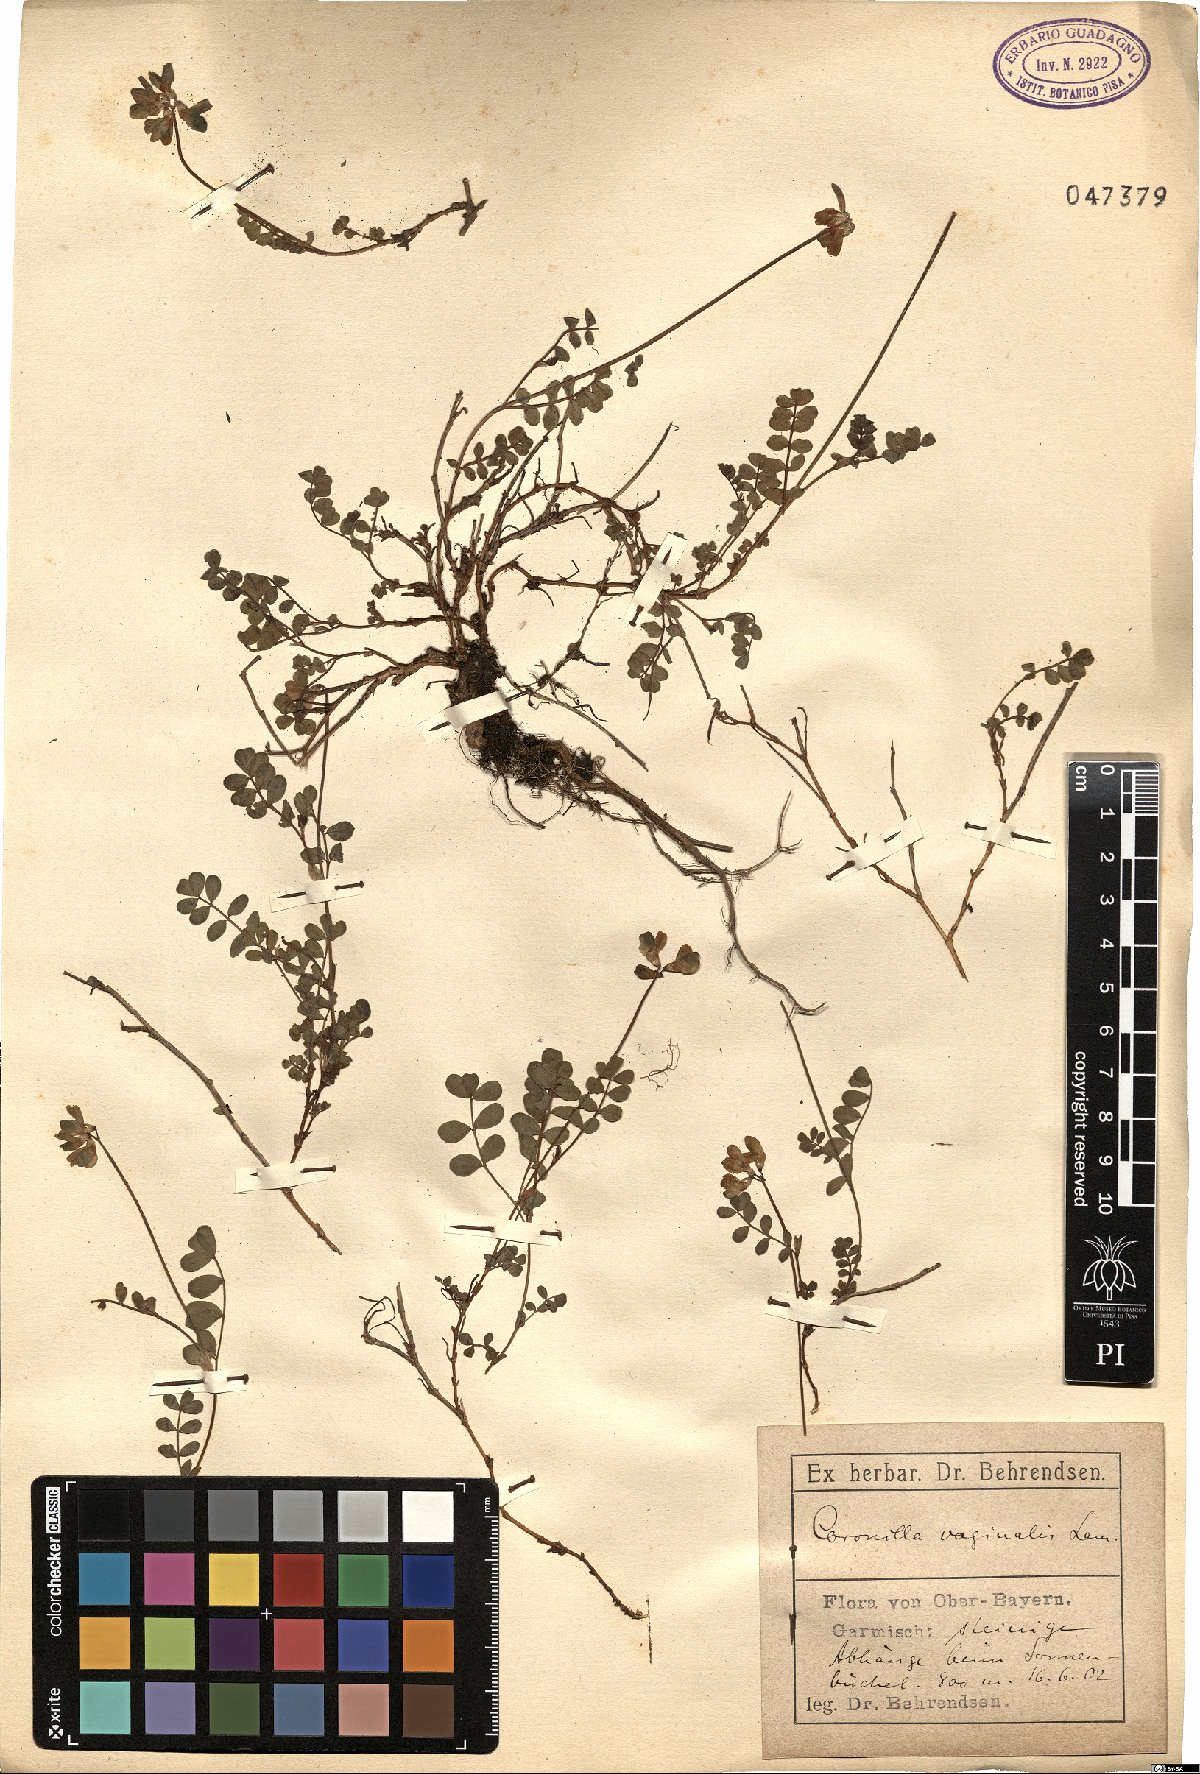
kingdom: Plantae
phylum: Tracheophyta
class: Magnoliopsida
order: Fabales
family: Fabaceae
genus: Coronilla
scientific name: Coronilla vaginalis
